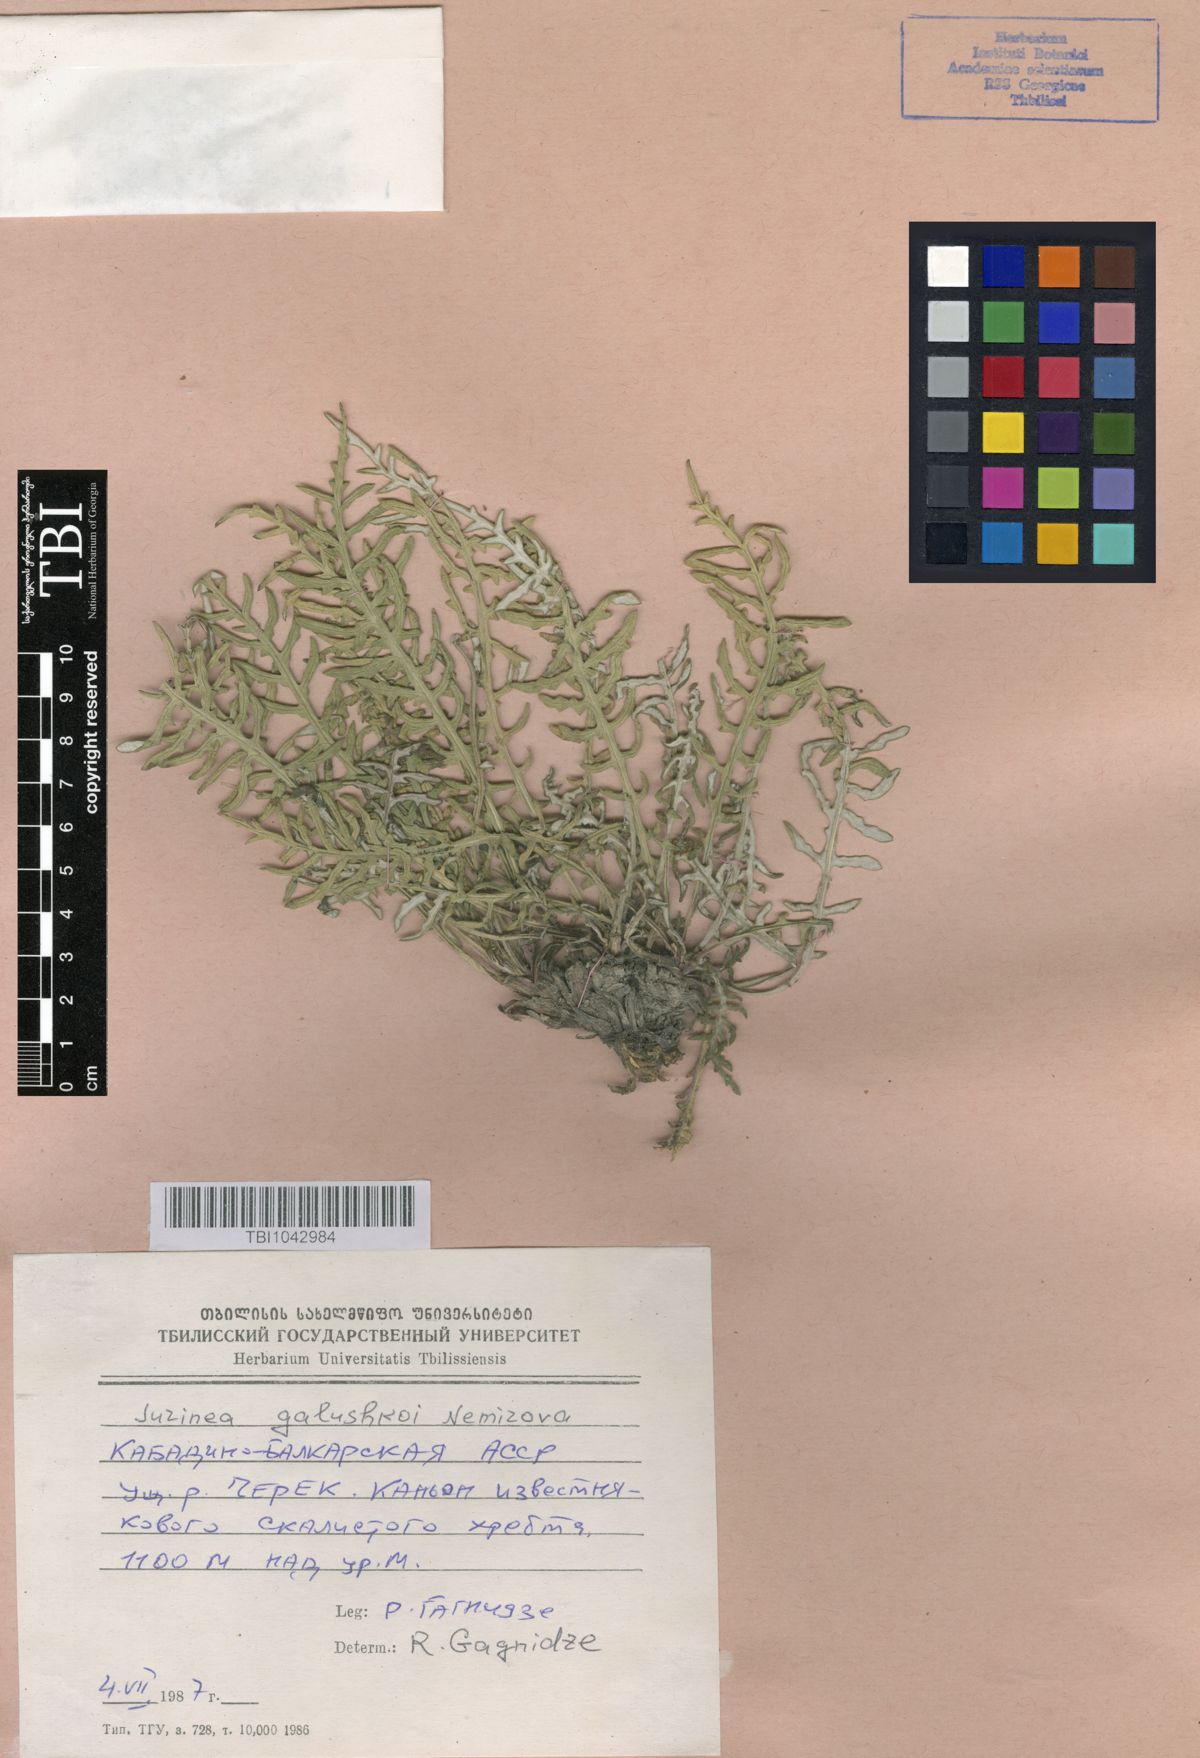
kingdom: Plantae
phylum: Tracheophyta
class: Magnoliopsida
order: Asterales
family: Asteraceae
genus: Jurinea
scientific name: Jurinea galushkoi
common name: Galushko's jurinea
